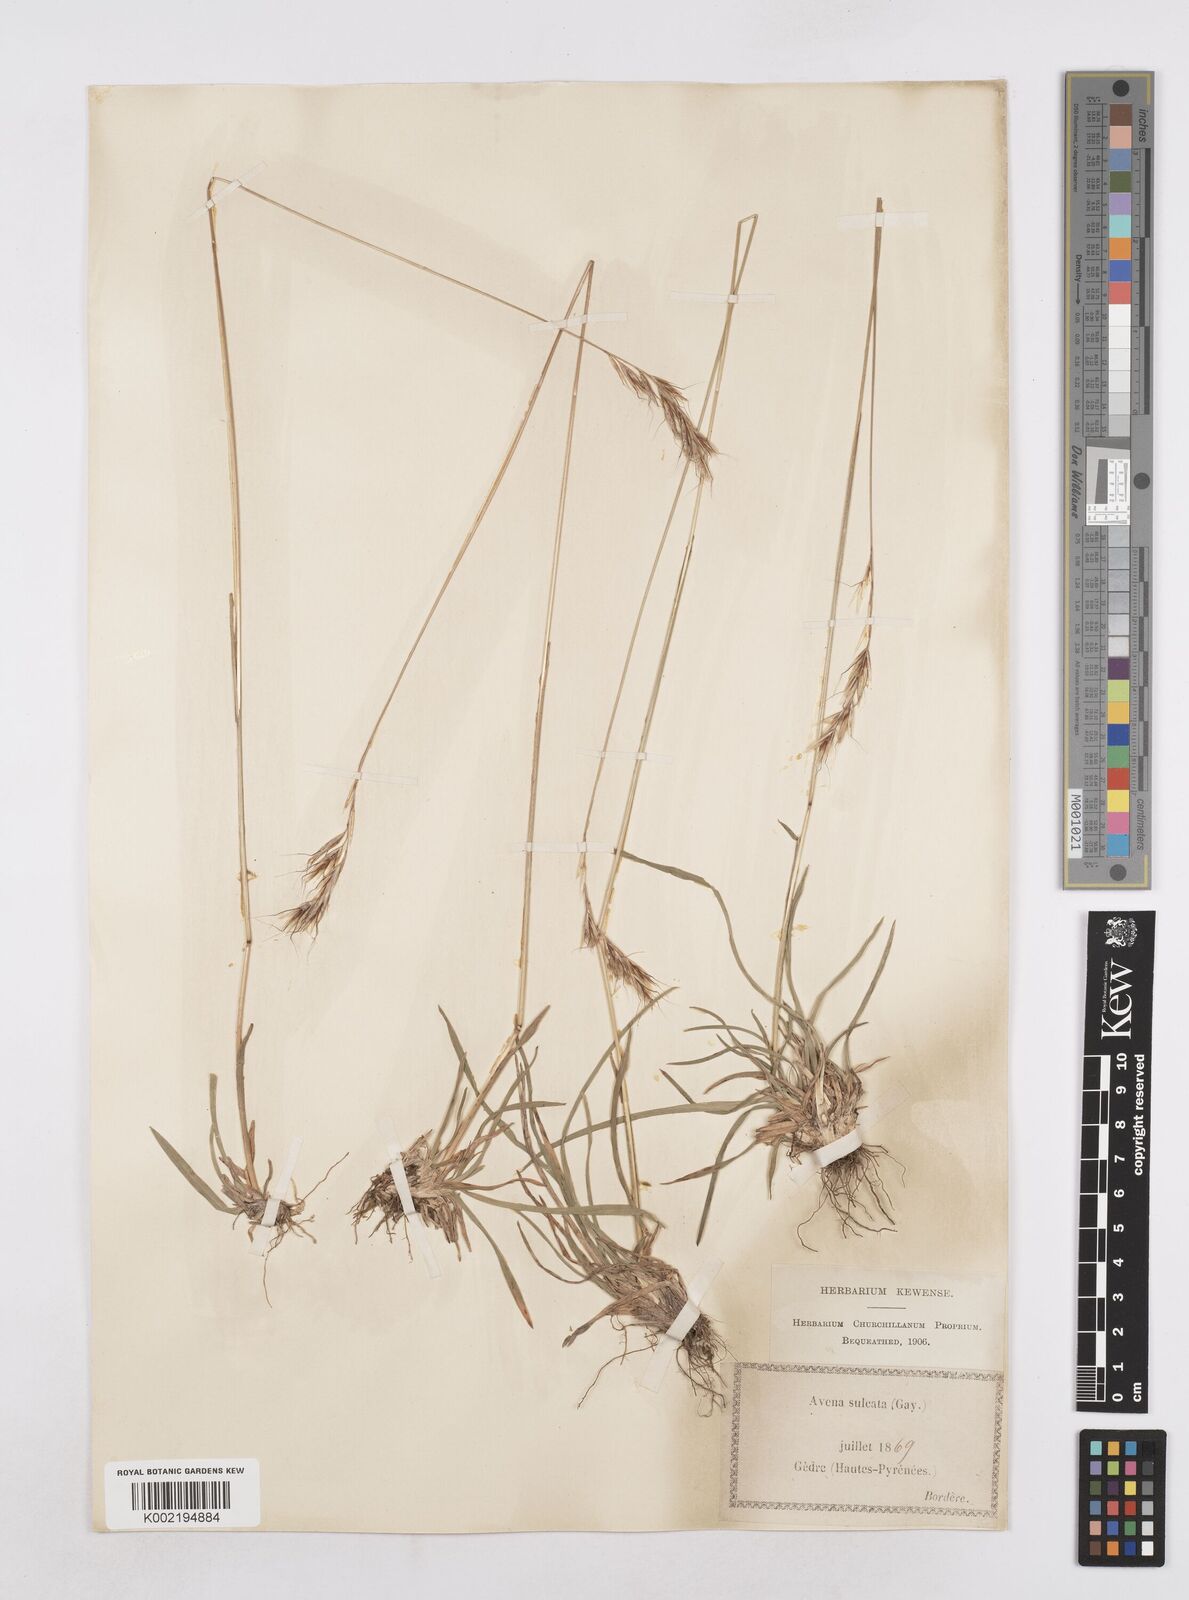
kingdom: Plantae
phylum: Tracheophyta
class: Liliopsida
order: Poales
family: Poaceae
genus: Helictotrichon
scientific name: Helictotrichon
